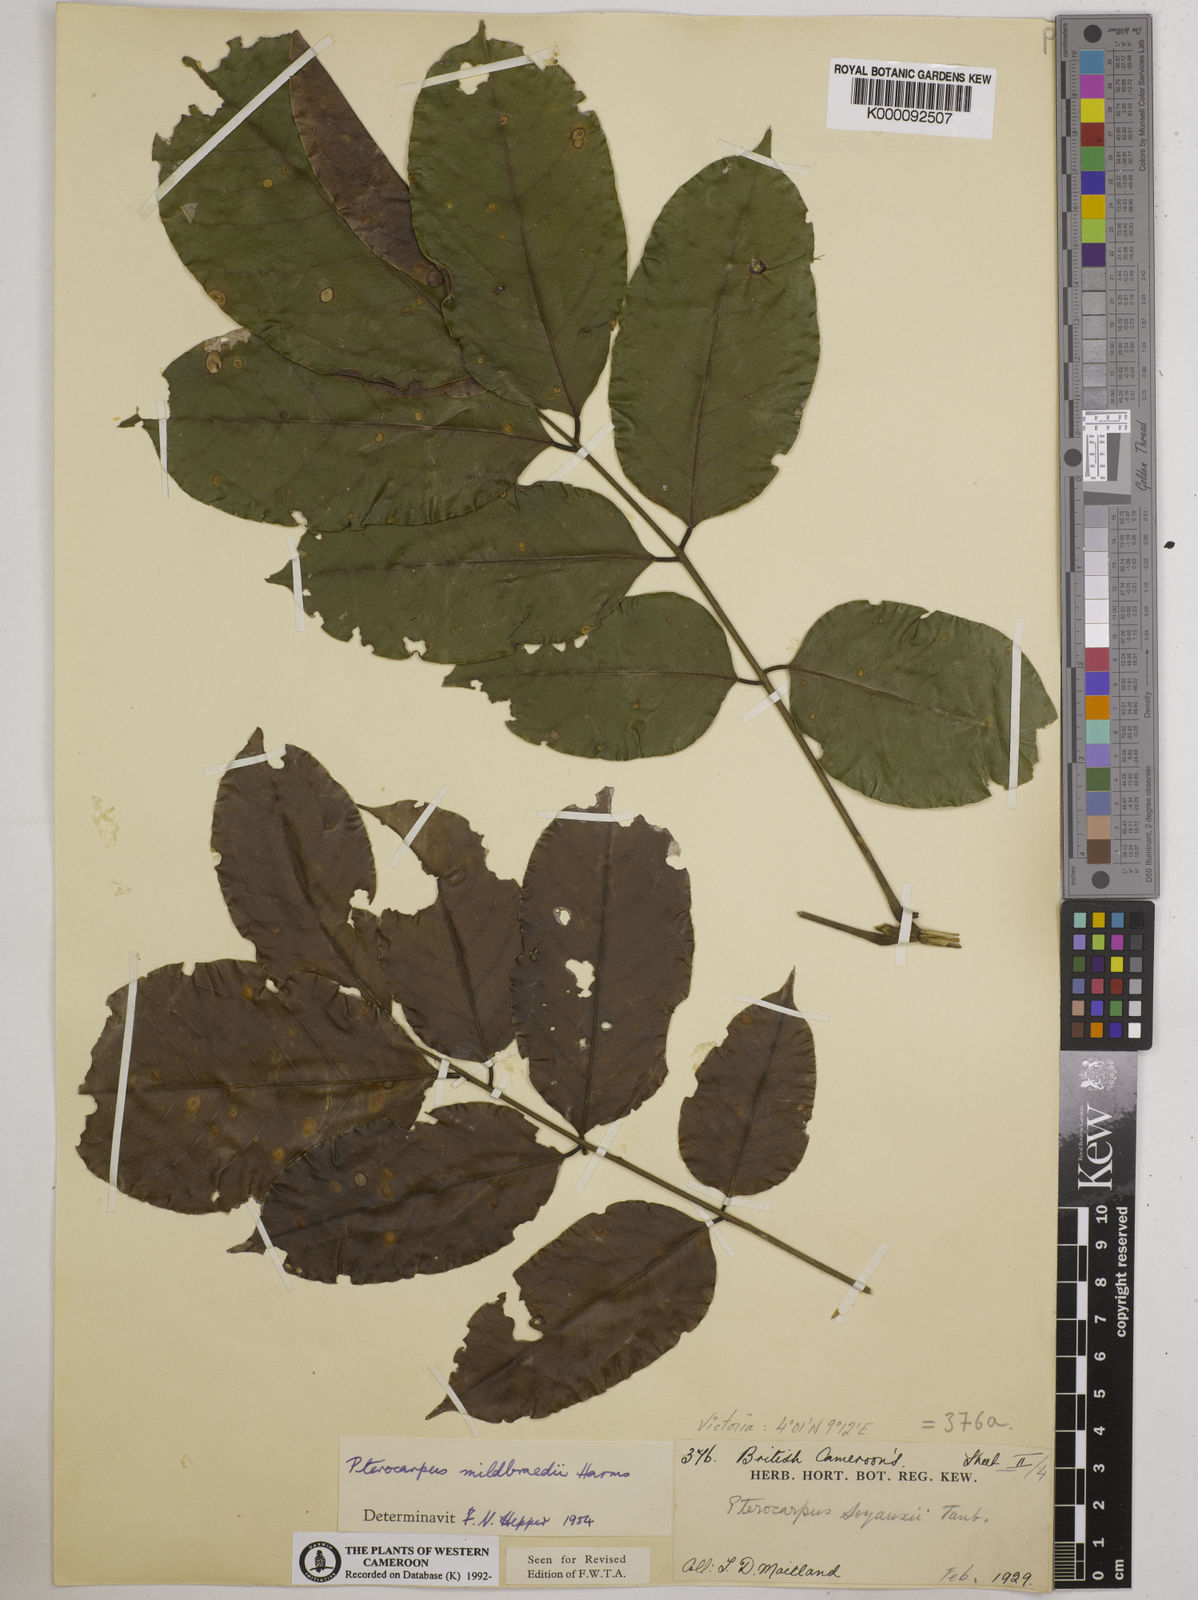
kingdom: Plantae
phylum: Tracheophyta
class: Magnoliopsida
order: Fabales
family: Fabaceae
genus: Pterocarpus
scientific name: Pterocarpus mildbraedii
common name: White padouk
